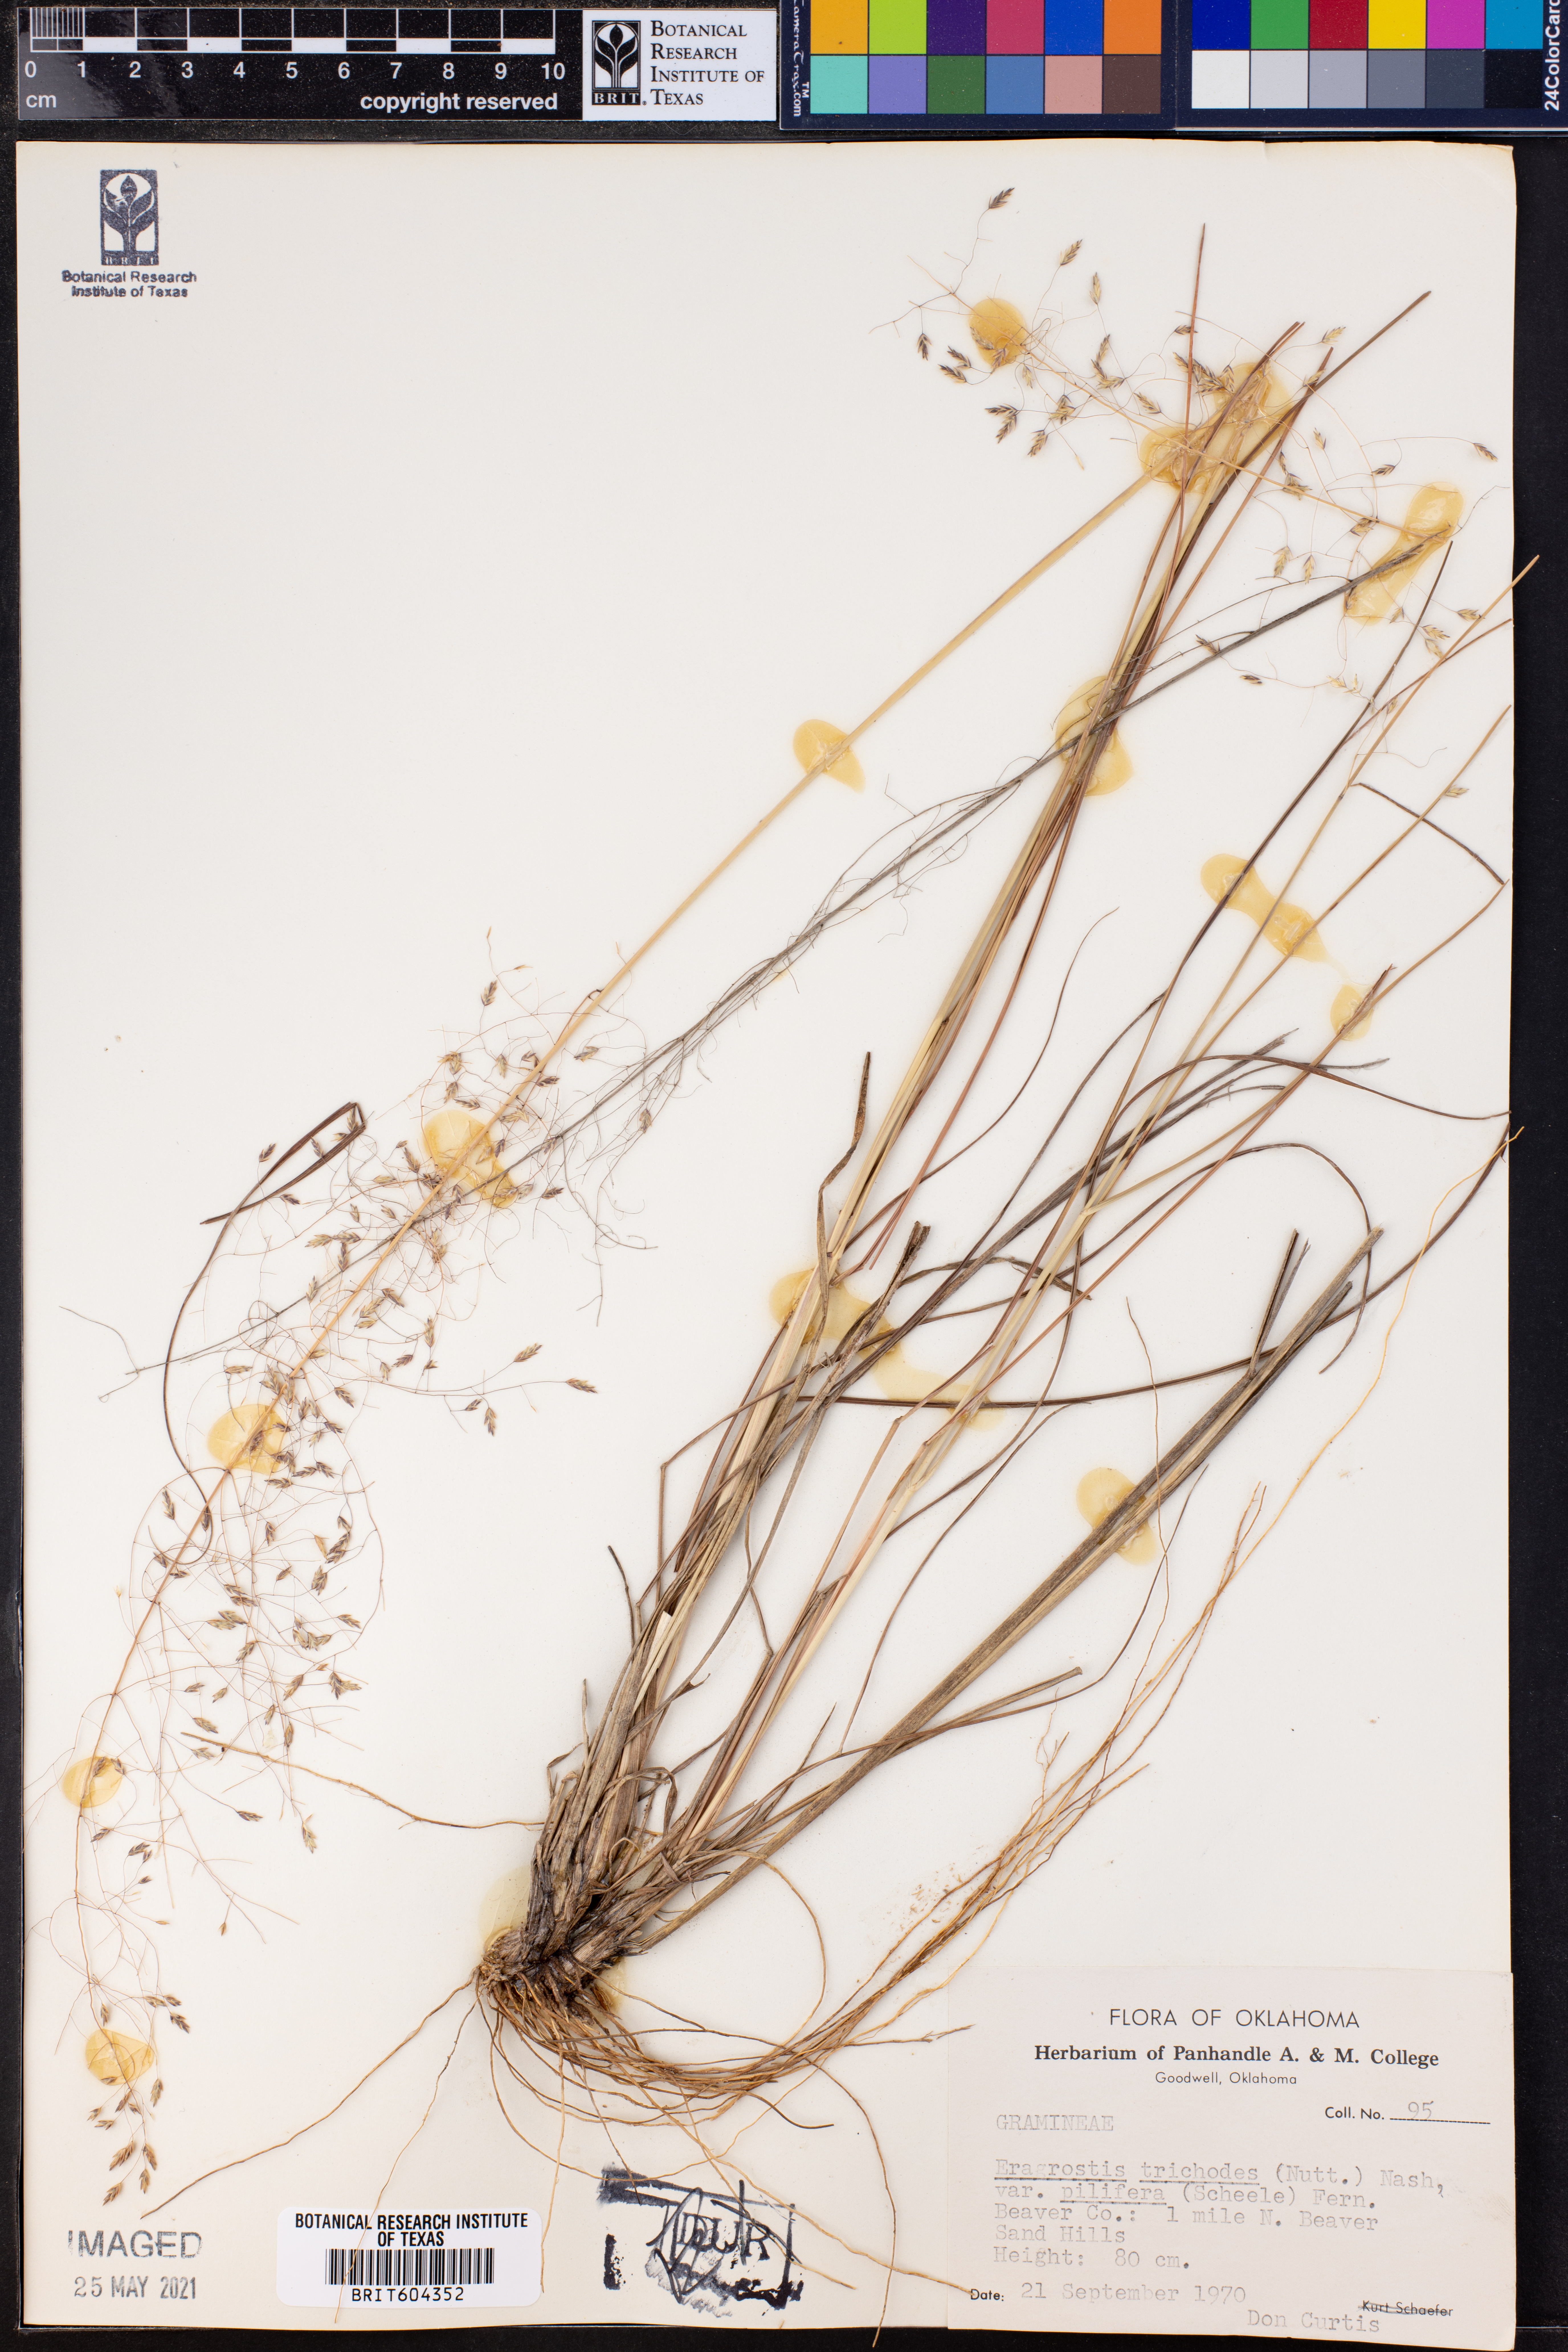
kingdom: Plantae
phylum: Tracheophyta
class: Liliopsida
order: Poales
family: Poaceae
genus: Eragrostis
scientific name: Eragrostis trichodes
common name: Sand love grass
